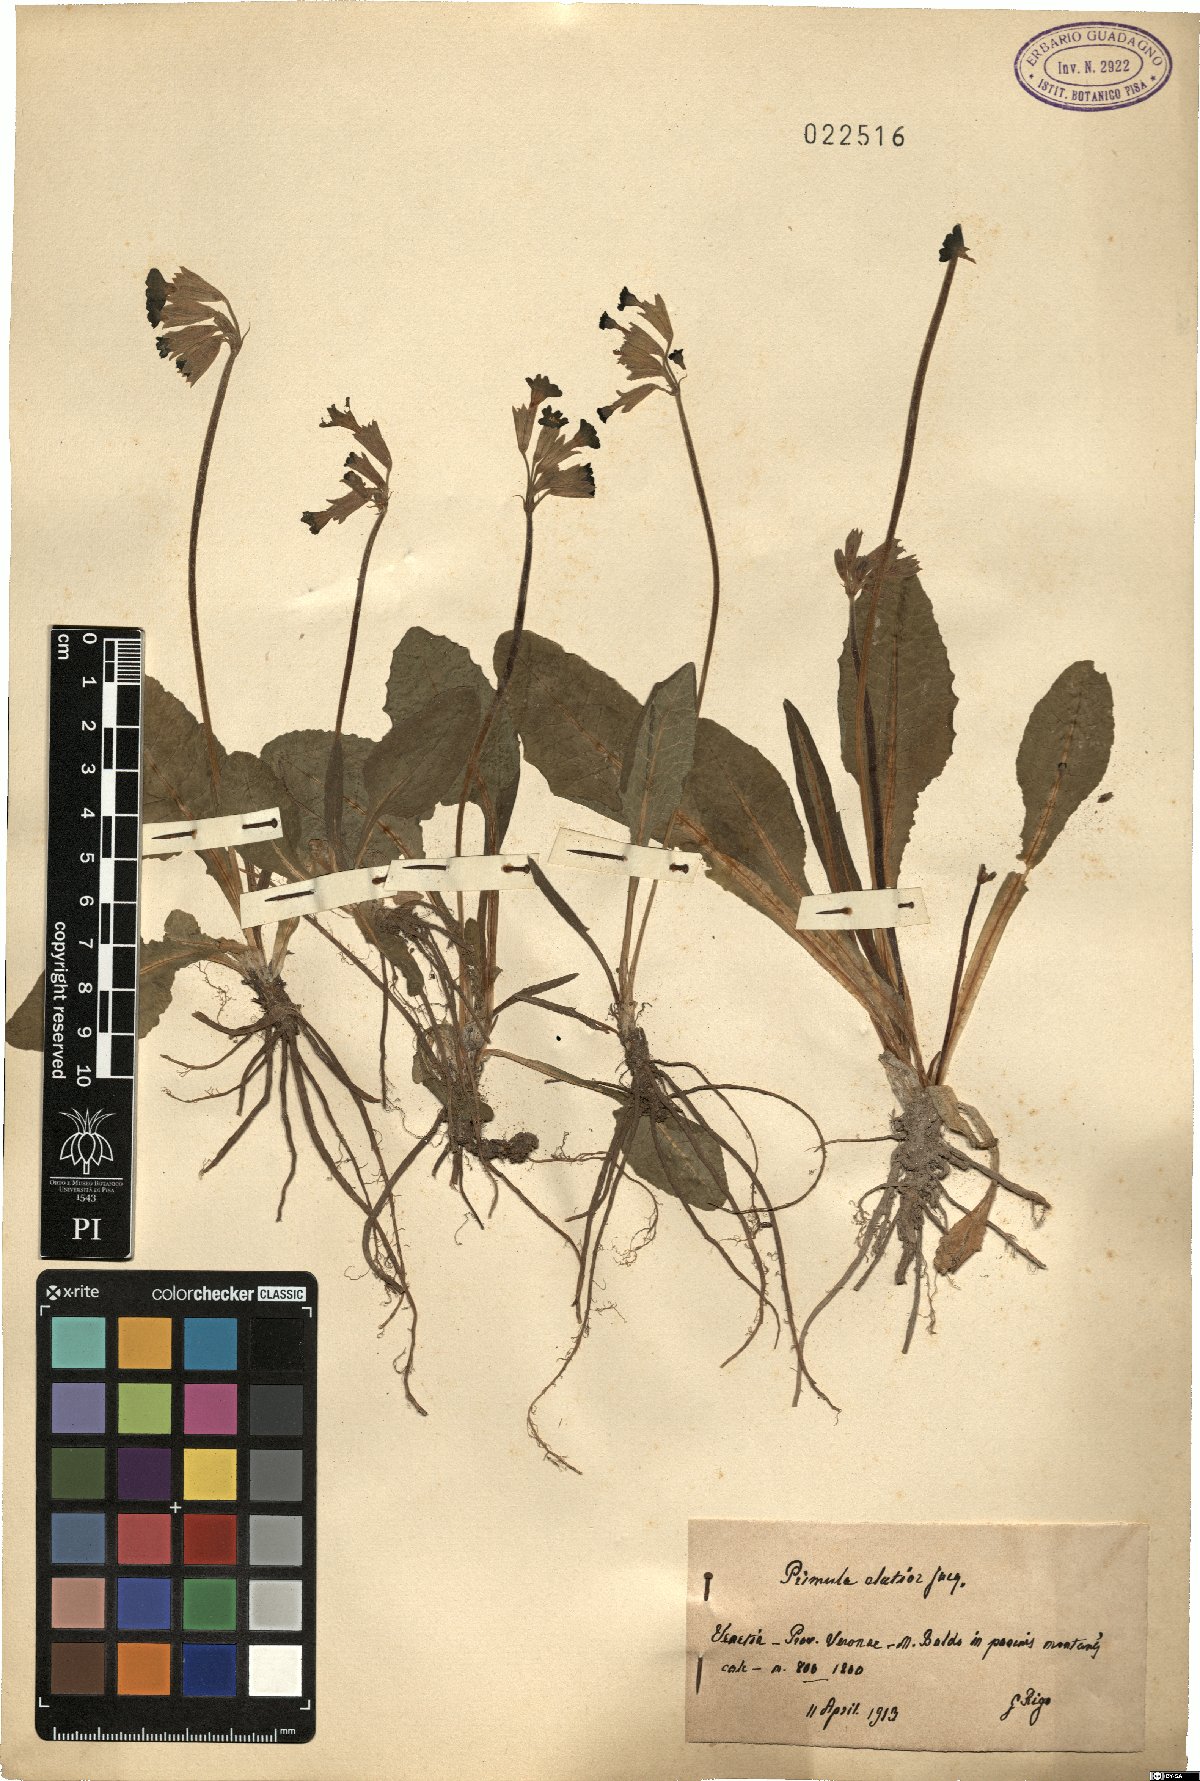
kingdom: Plantae
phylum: Tracheophyta
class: Magnoliopsida
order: Ericales
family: Primulaceae
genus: Primula
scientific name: Primula elatior
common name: Oxlip
